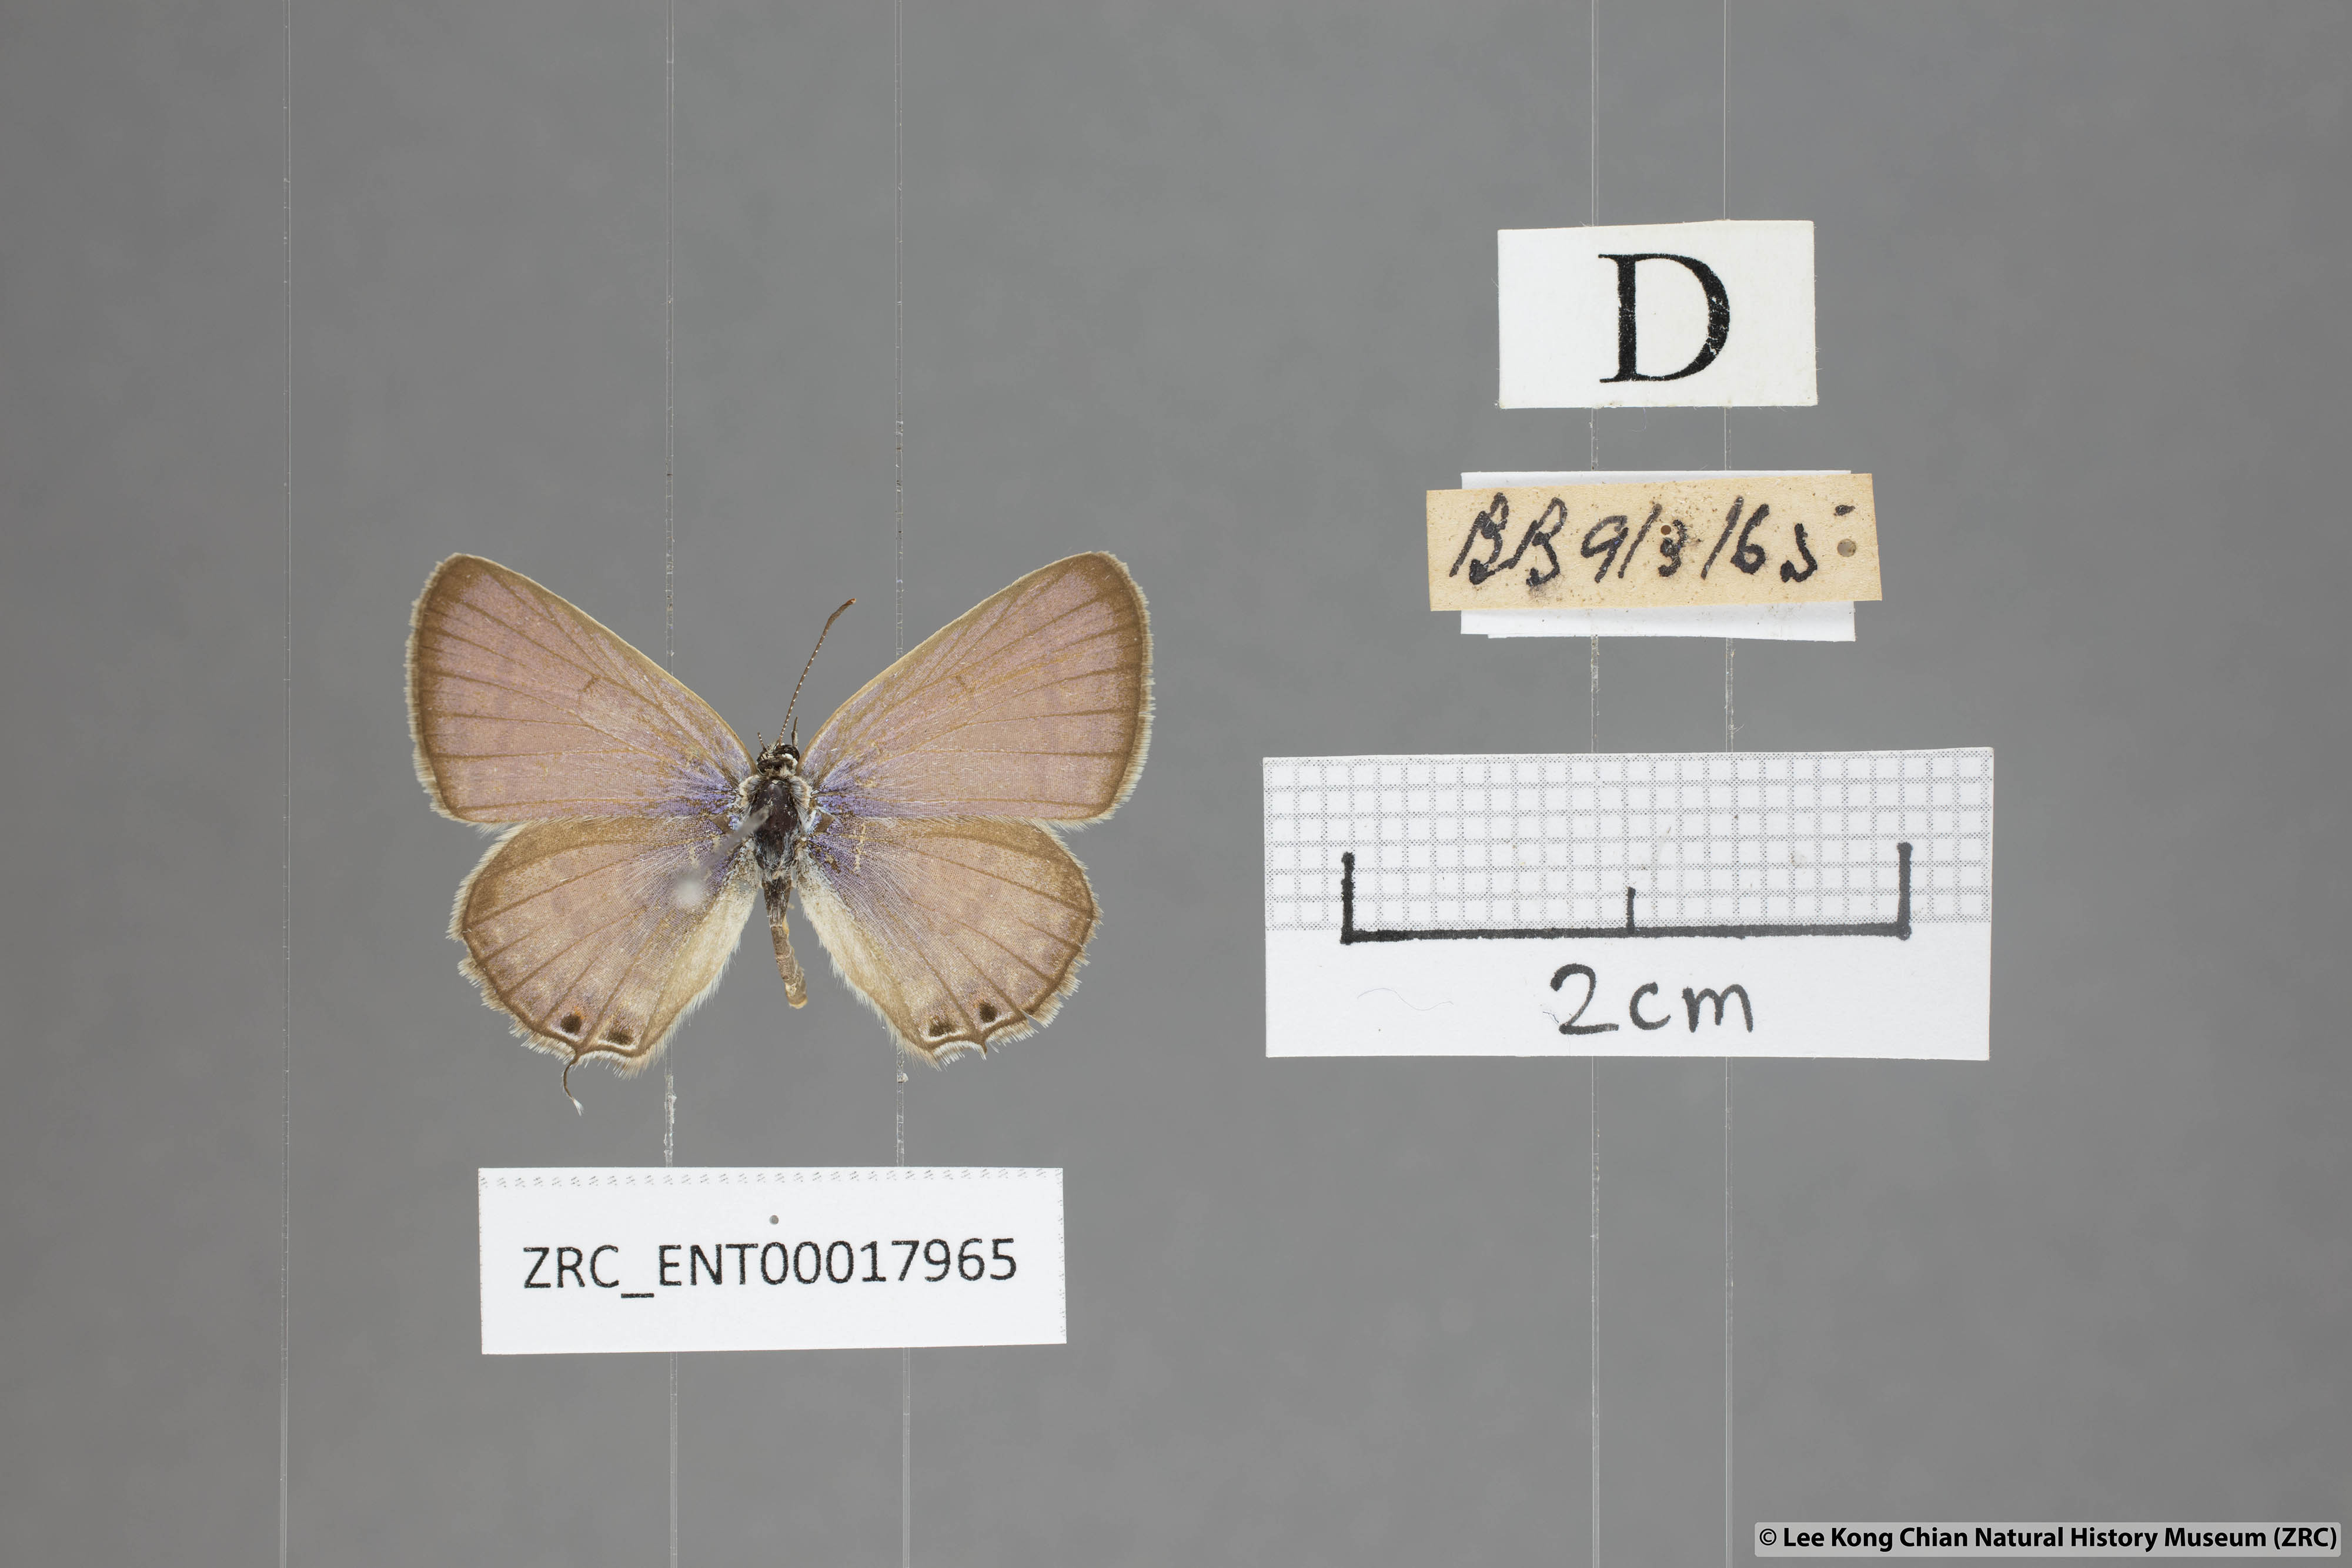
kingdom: Animalia
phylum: Arthropoda
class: Insecta
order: Lepidoptera
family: Lycaenidae
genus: Euchrysops
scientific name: Euchrysops cnejus
